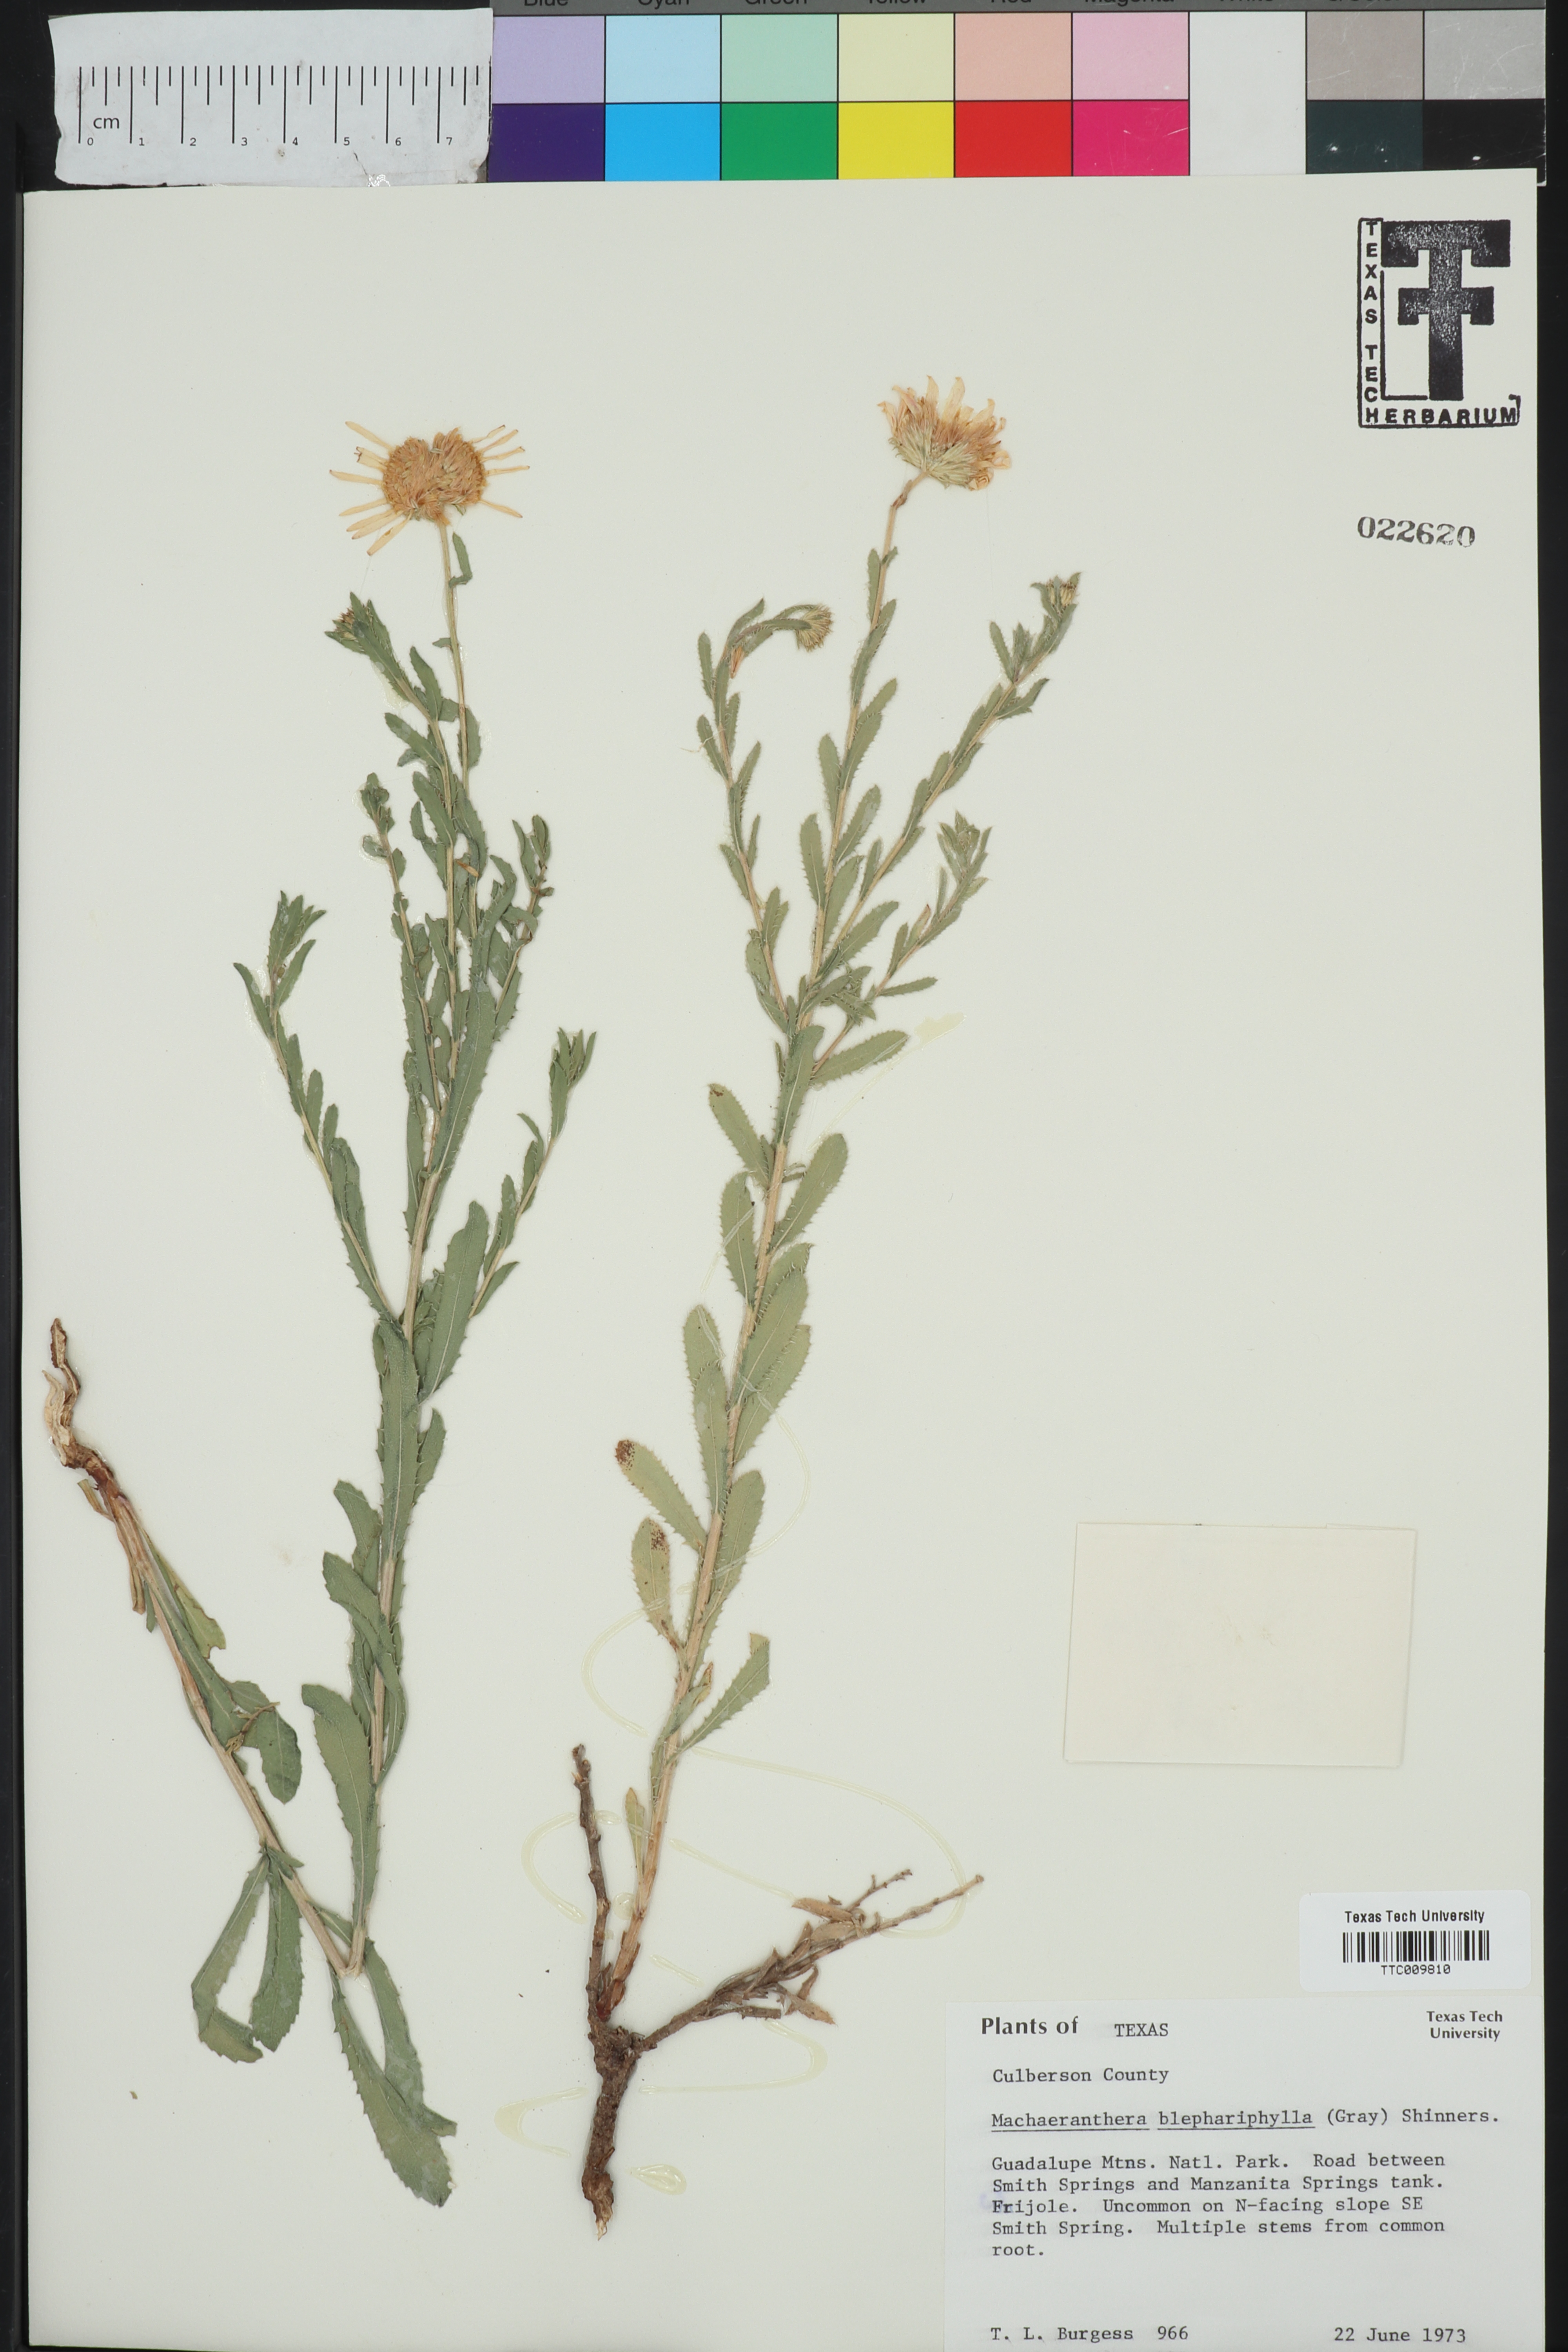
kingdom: Plantae
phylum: Tracheophyta
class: Magnoliopsida
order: Asterales
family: Asteraceae
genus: Xanthisma
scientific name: Xanthisma blephariphyllum
